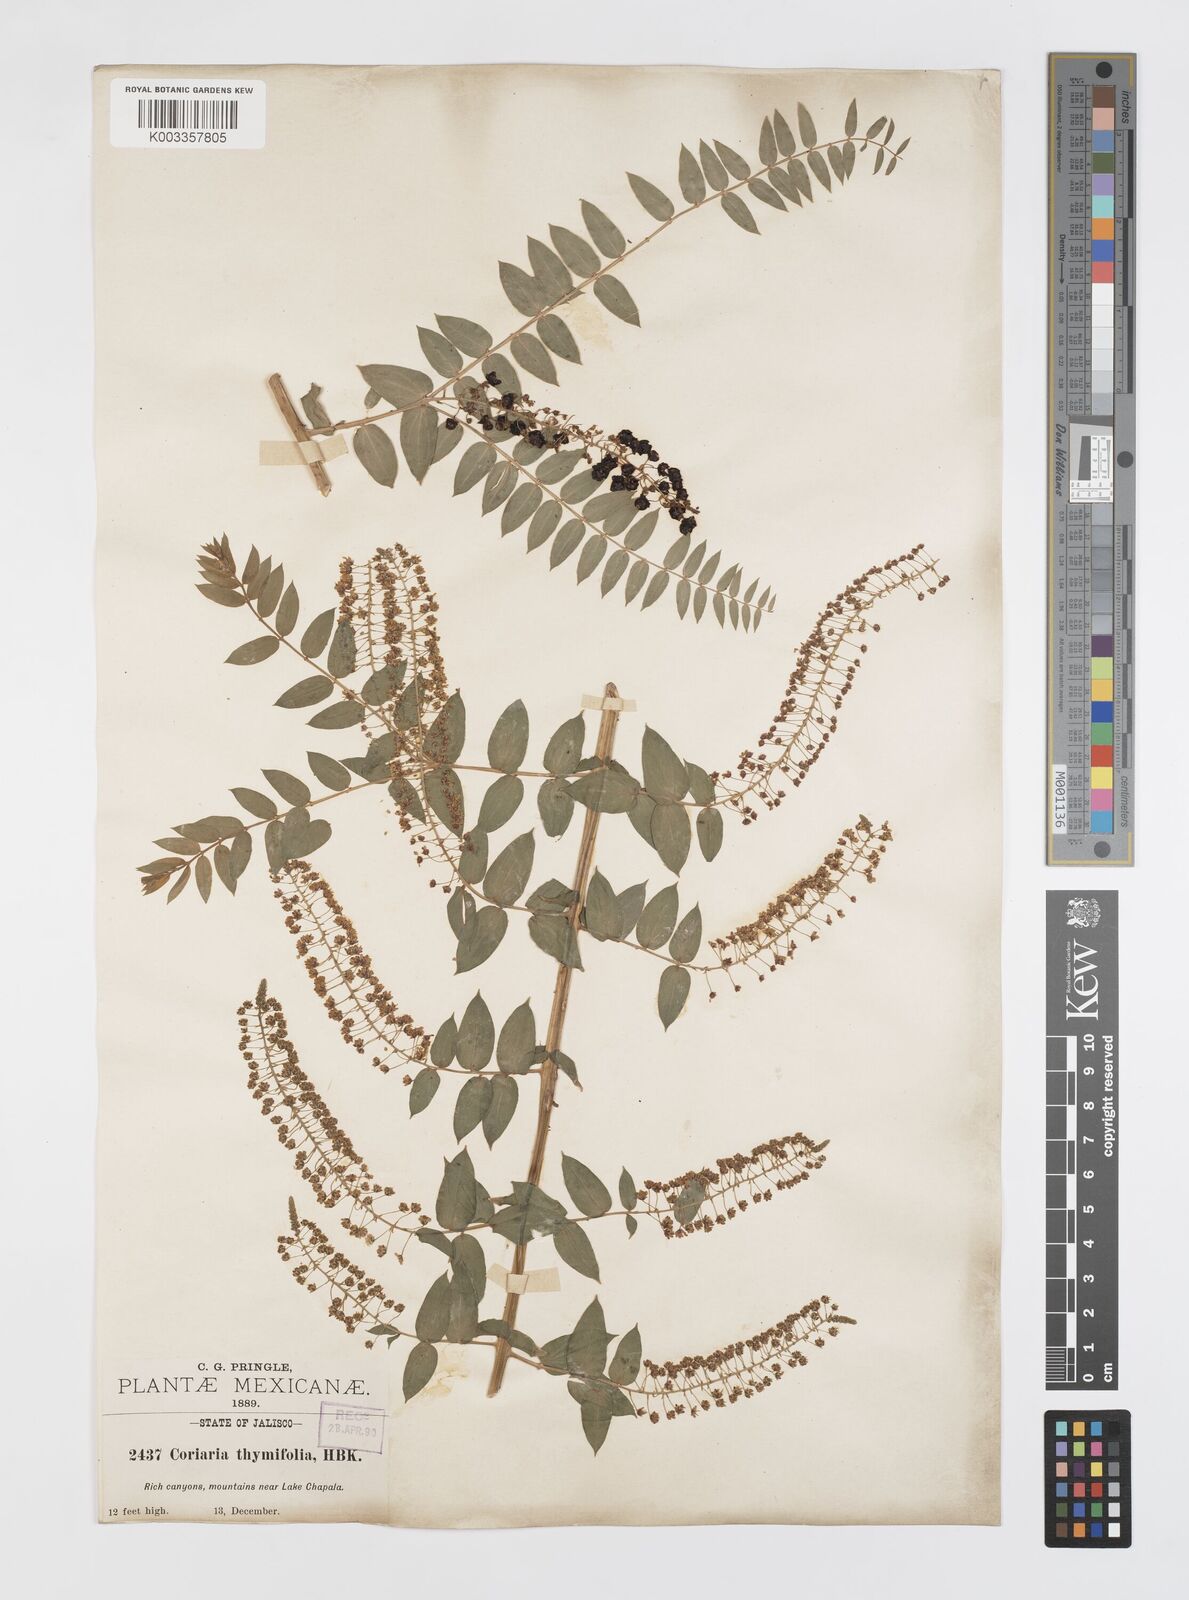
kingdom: Plantae
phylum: Tracheophyta
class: Magnoliopsida
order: Cucurbitales
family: Coriariaceae
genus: Coriaria
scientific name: Coriaria microphylla
